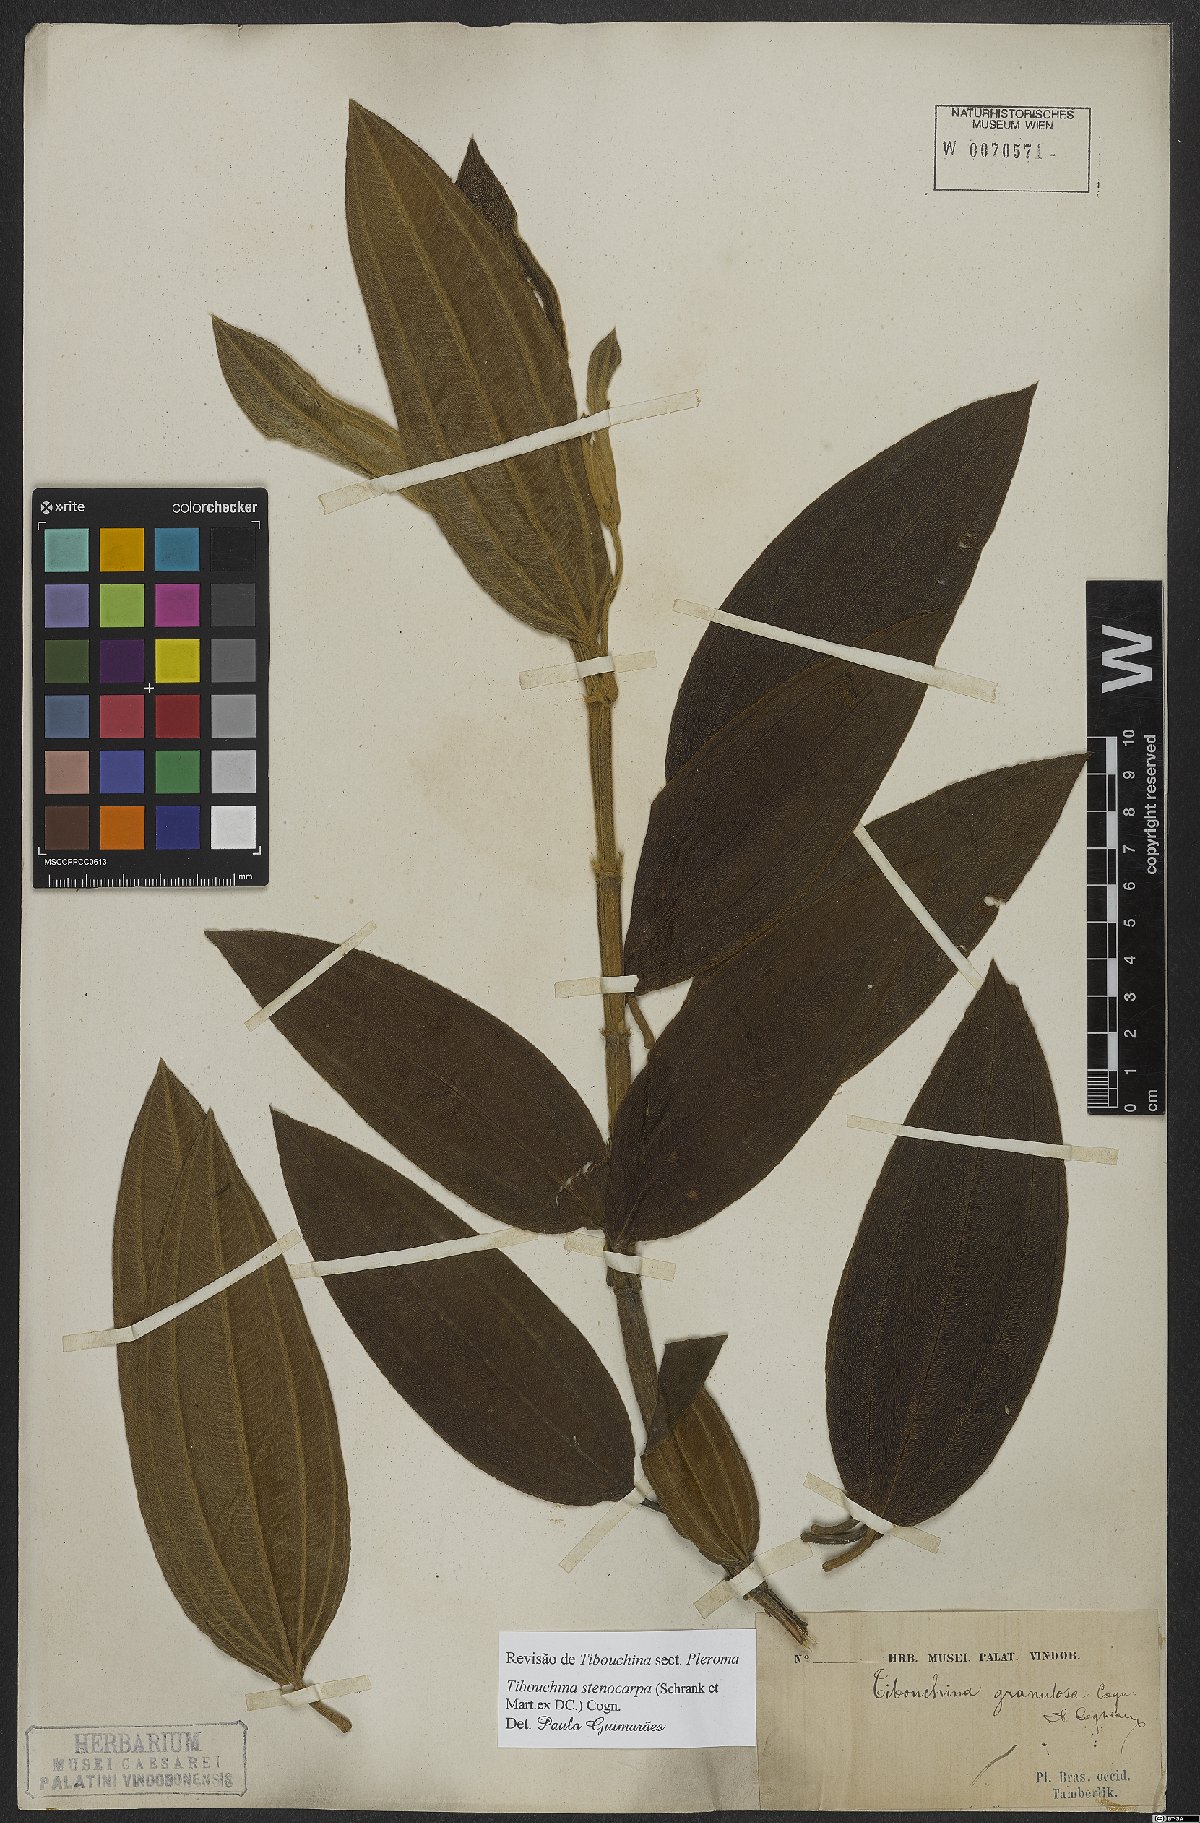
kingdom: Plantae
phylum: Tracheophyta
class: Magnoliopsida
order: Myrtales
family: Melastomataceae
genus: Pleroma
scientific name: Pleroma stenocarpum
